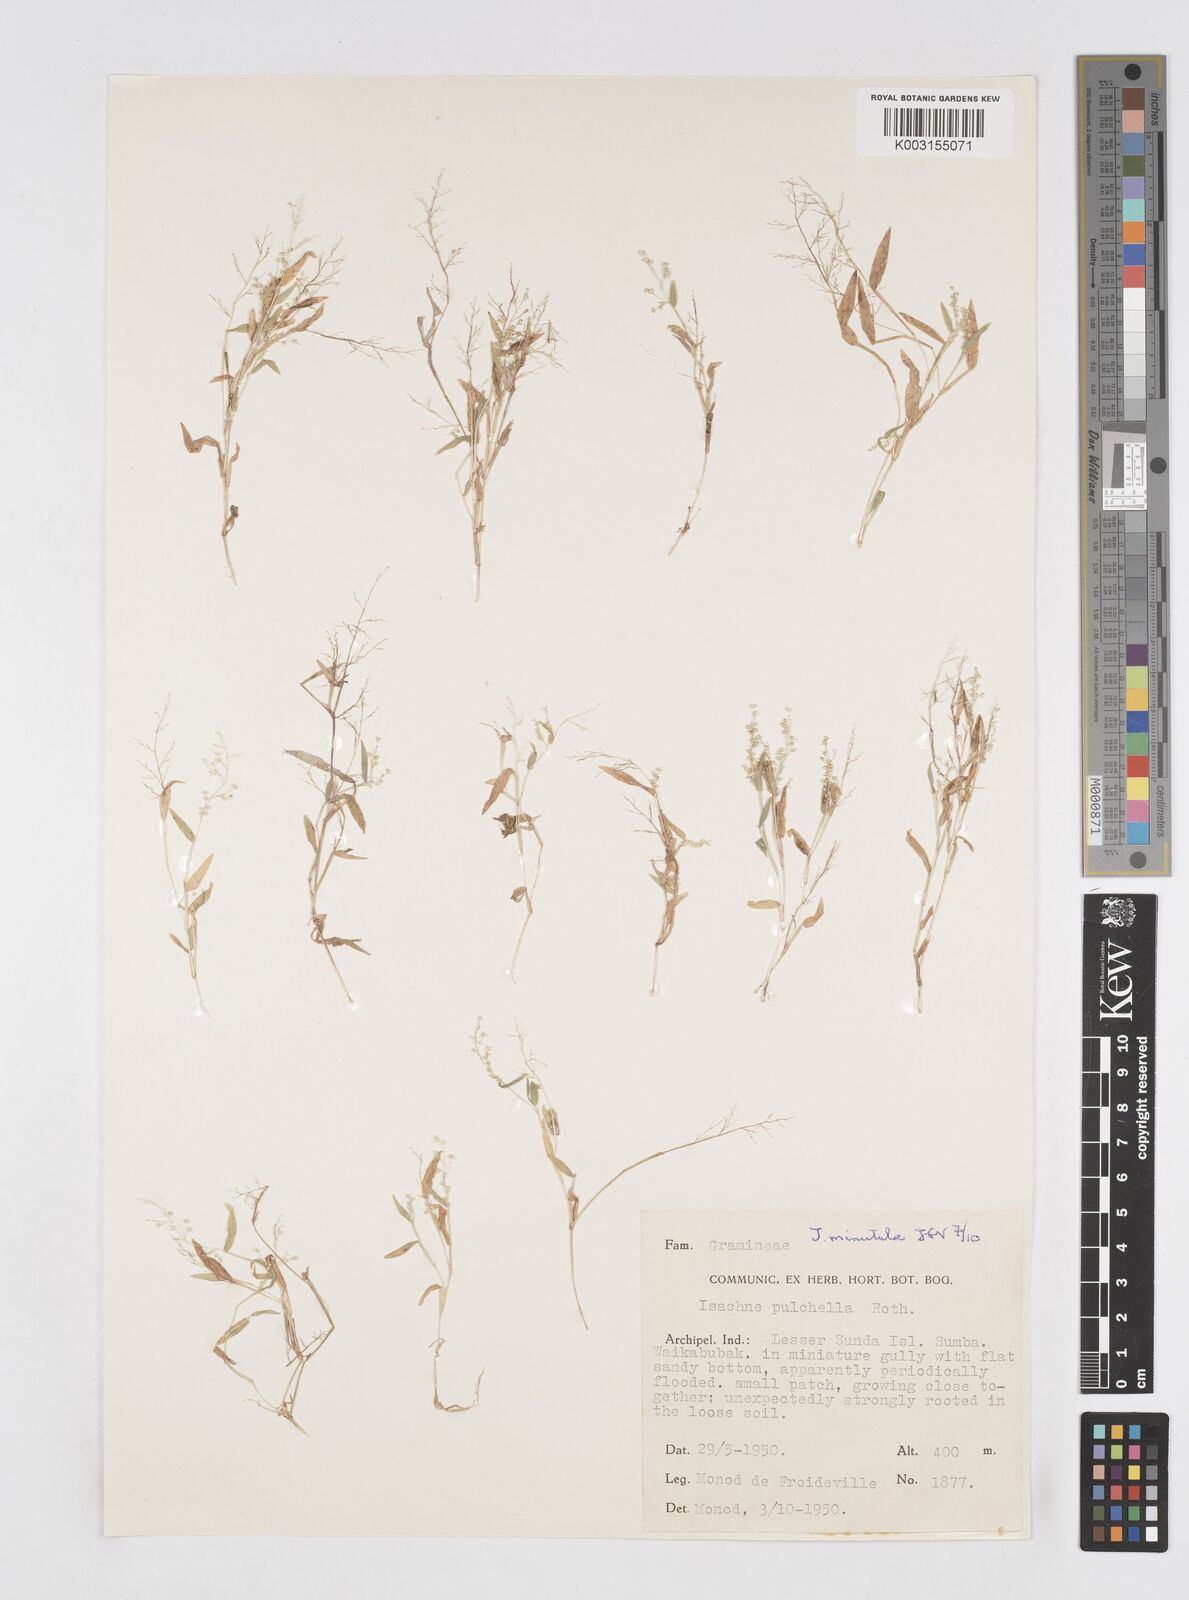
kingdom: Plantae
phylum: Tracheophyta
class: Liliopsida
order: Poales
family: Poaceae
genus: Isachne
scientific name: Isachne pulchella
